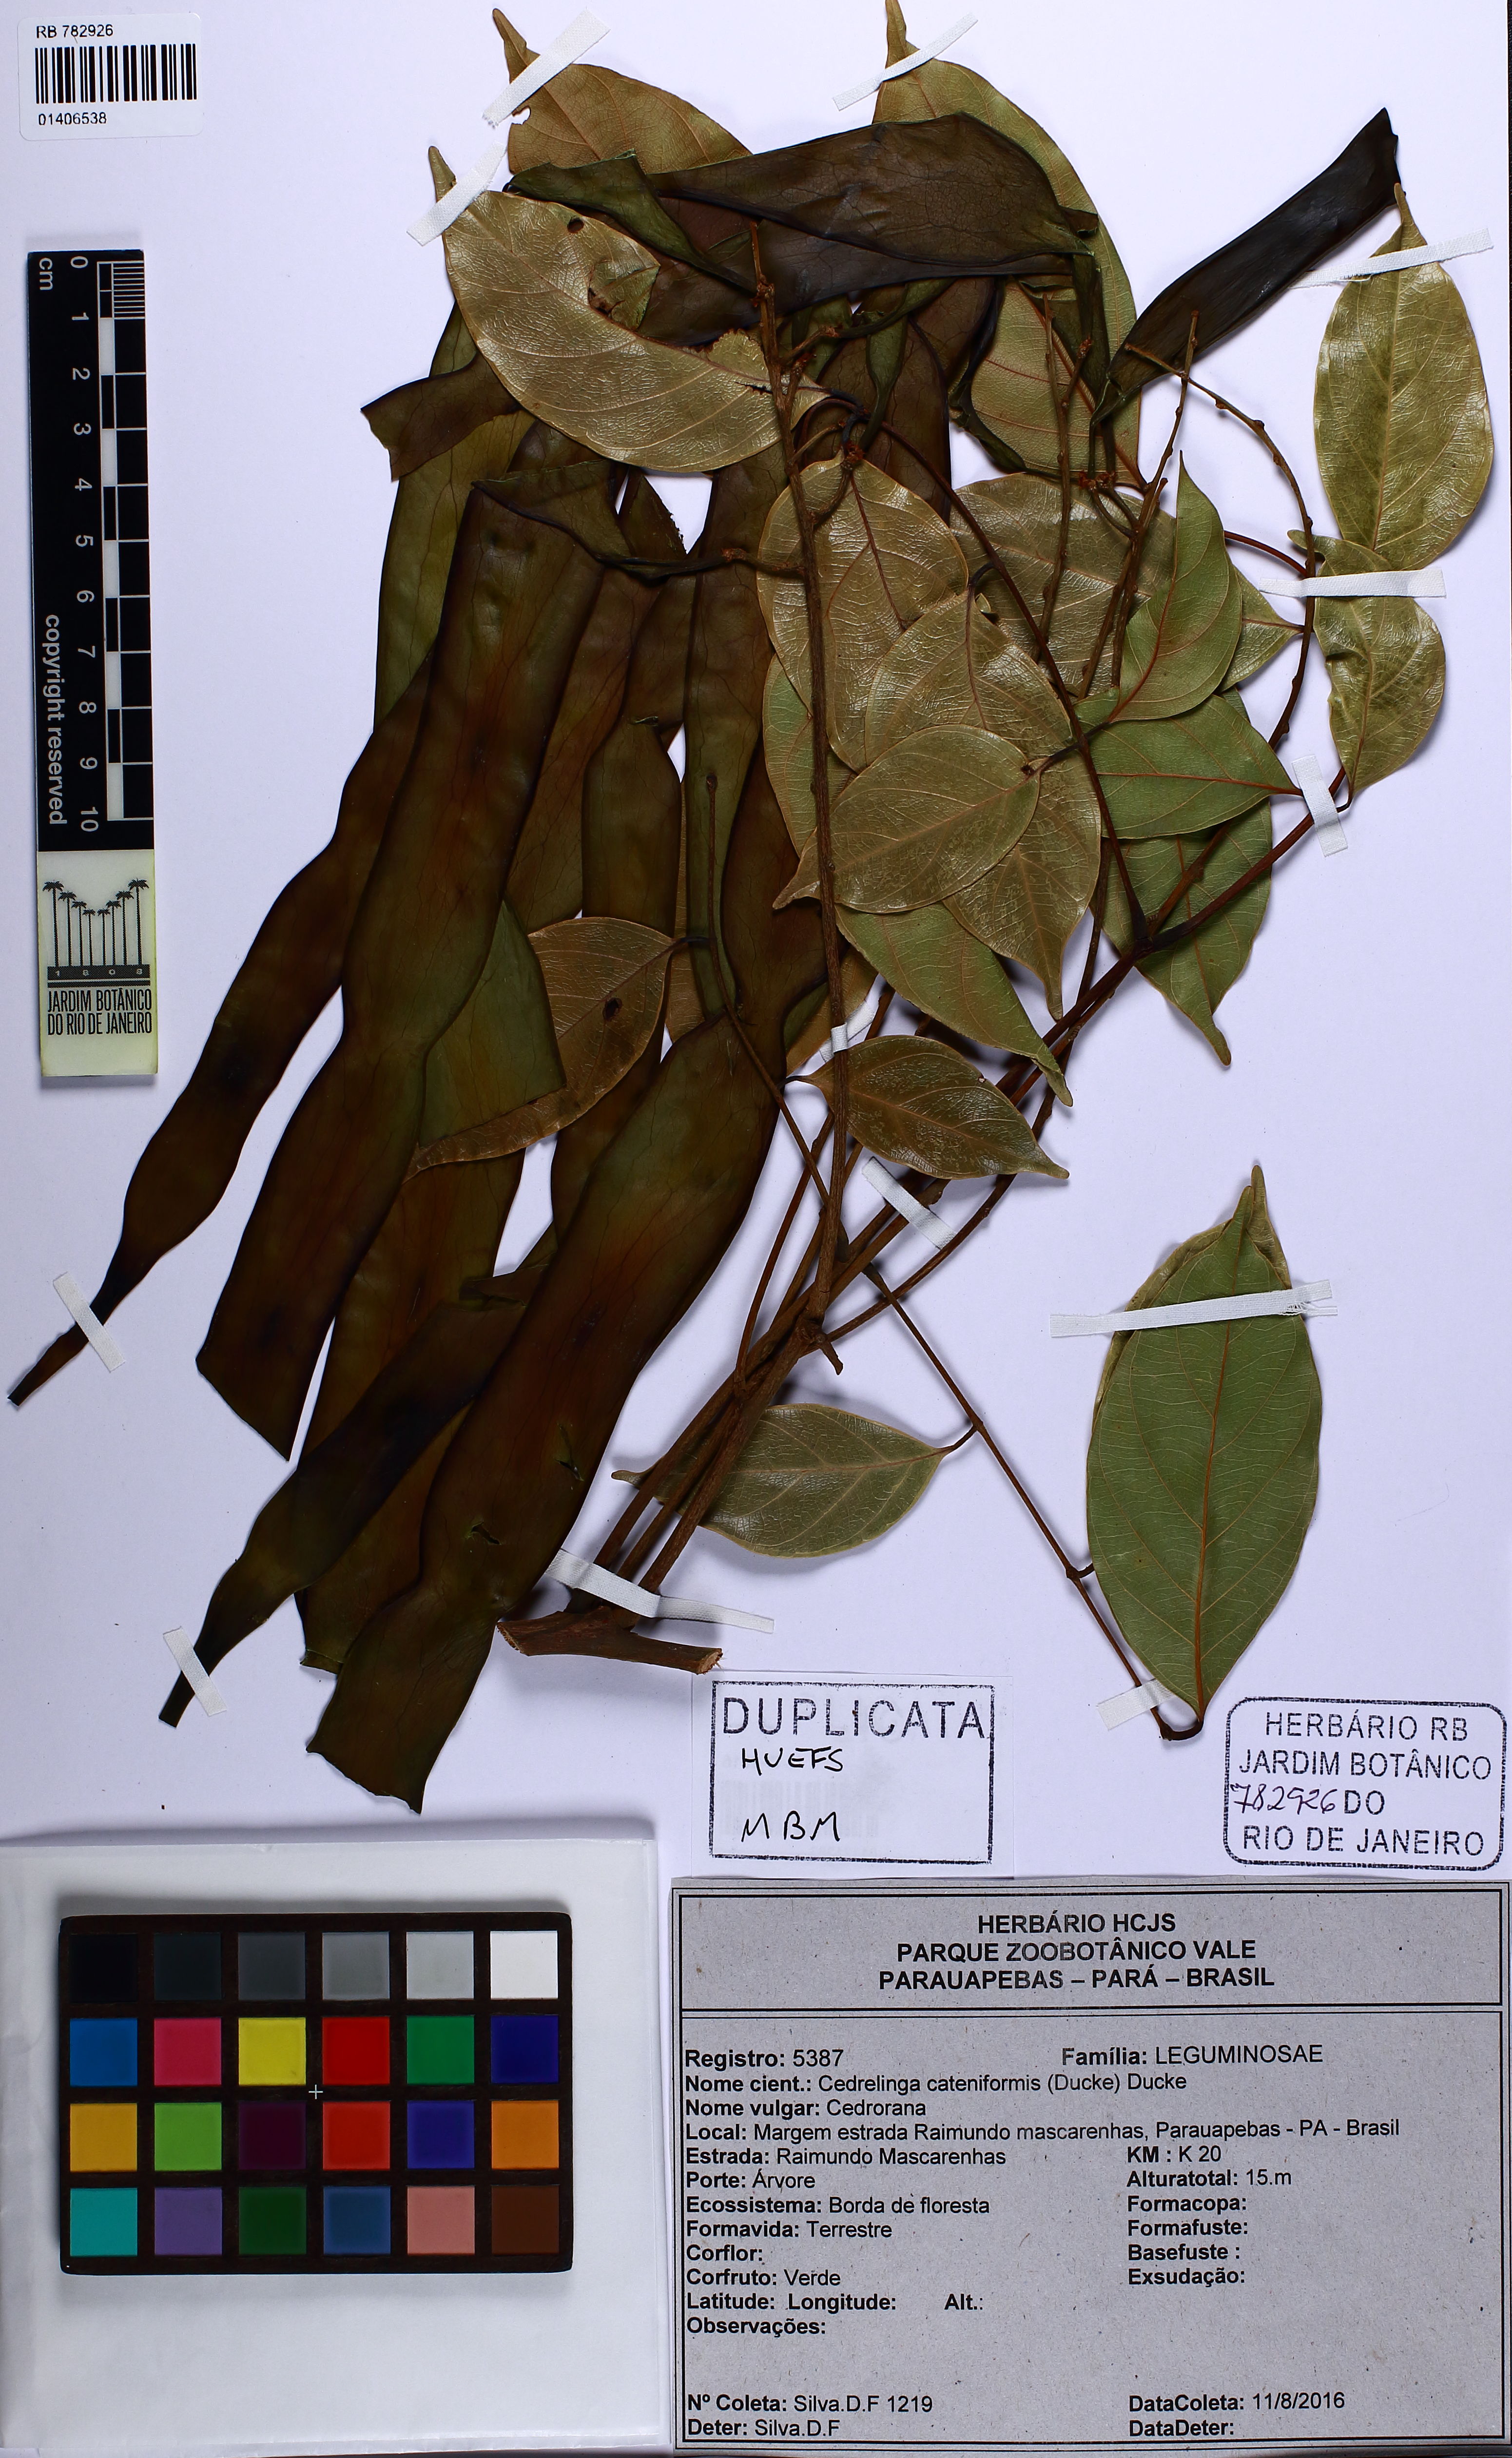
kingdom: Plantae
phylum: Tracheophyta
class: Magnoliopsida
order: Fabales
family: Fabaceae
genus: Cedrelinga
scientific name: Cedrelinga cateniformis
